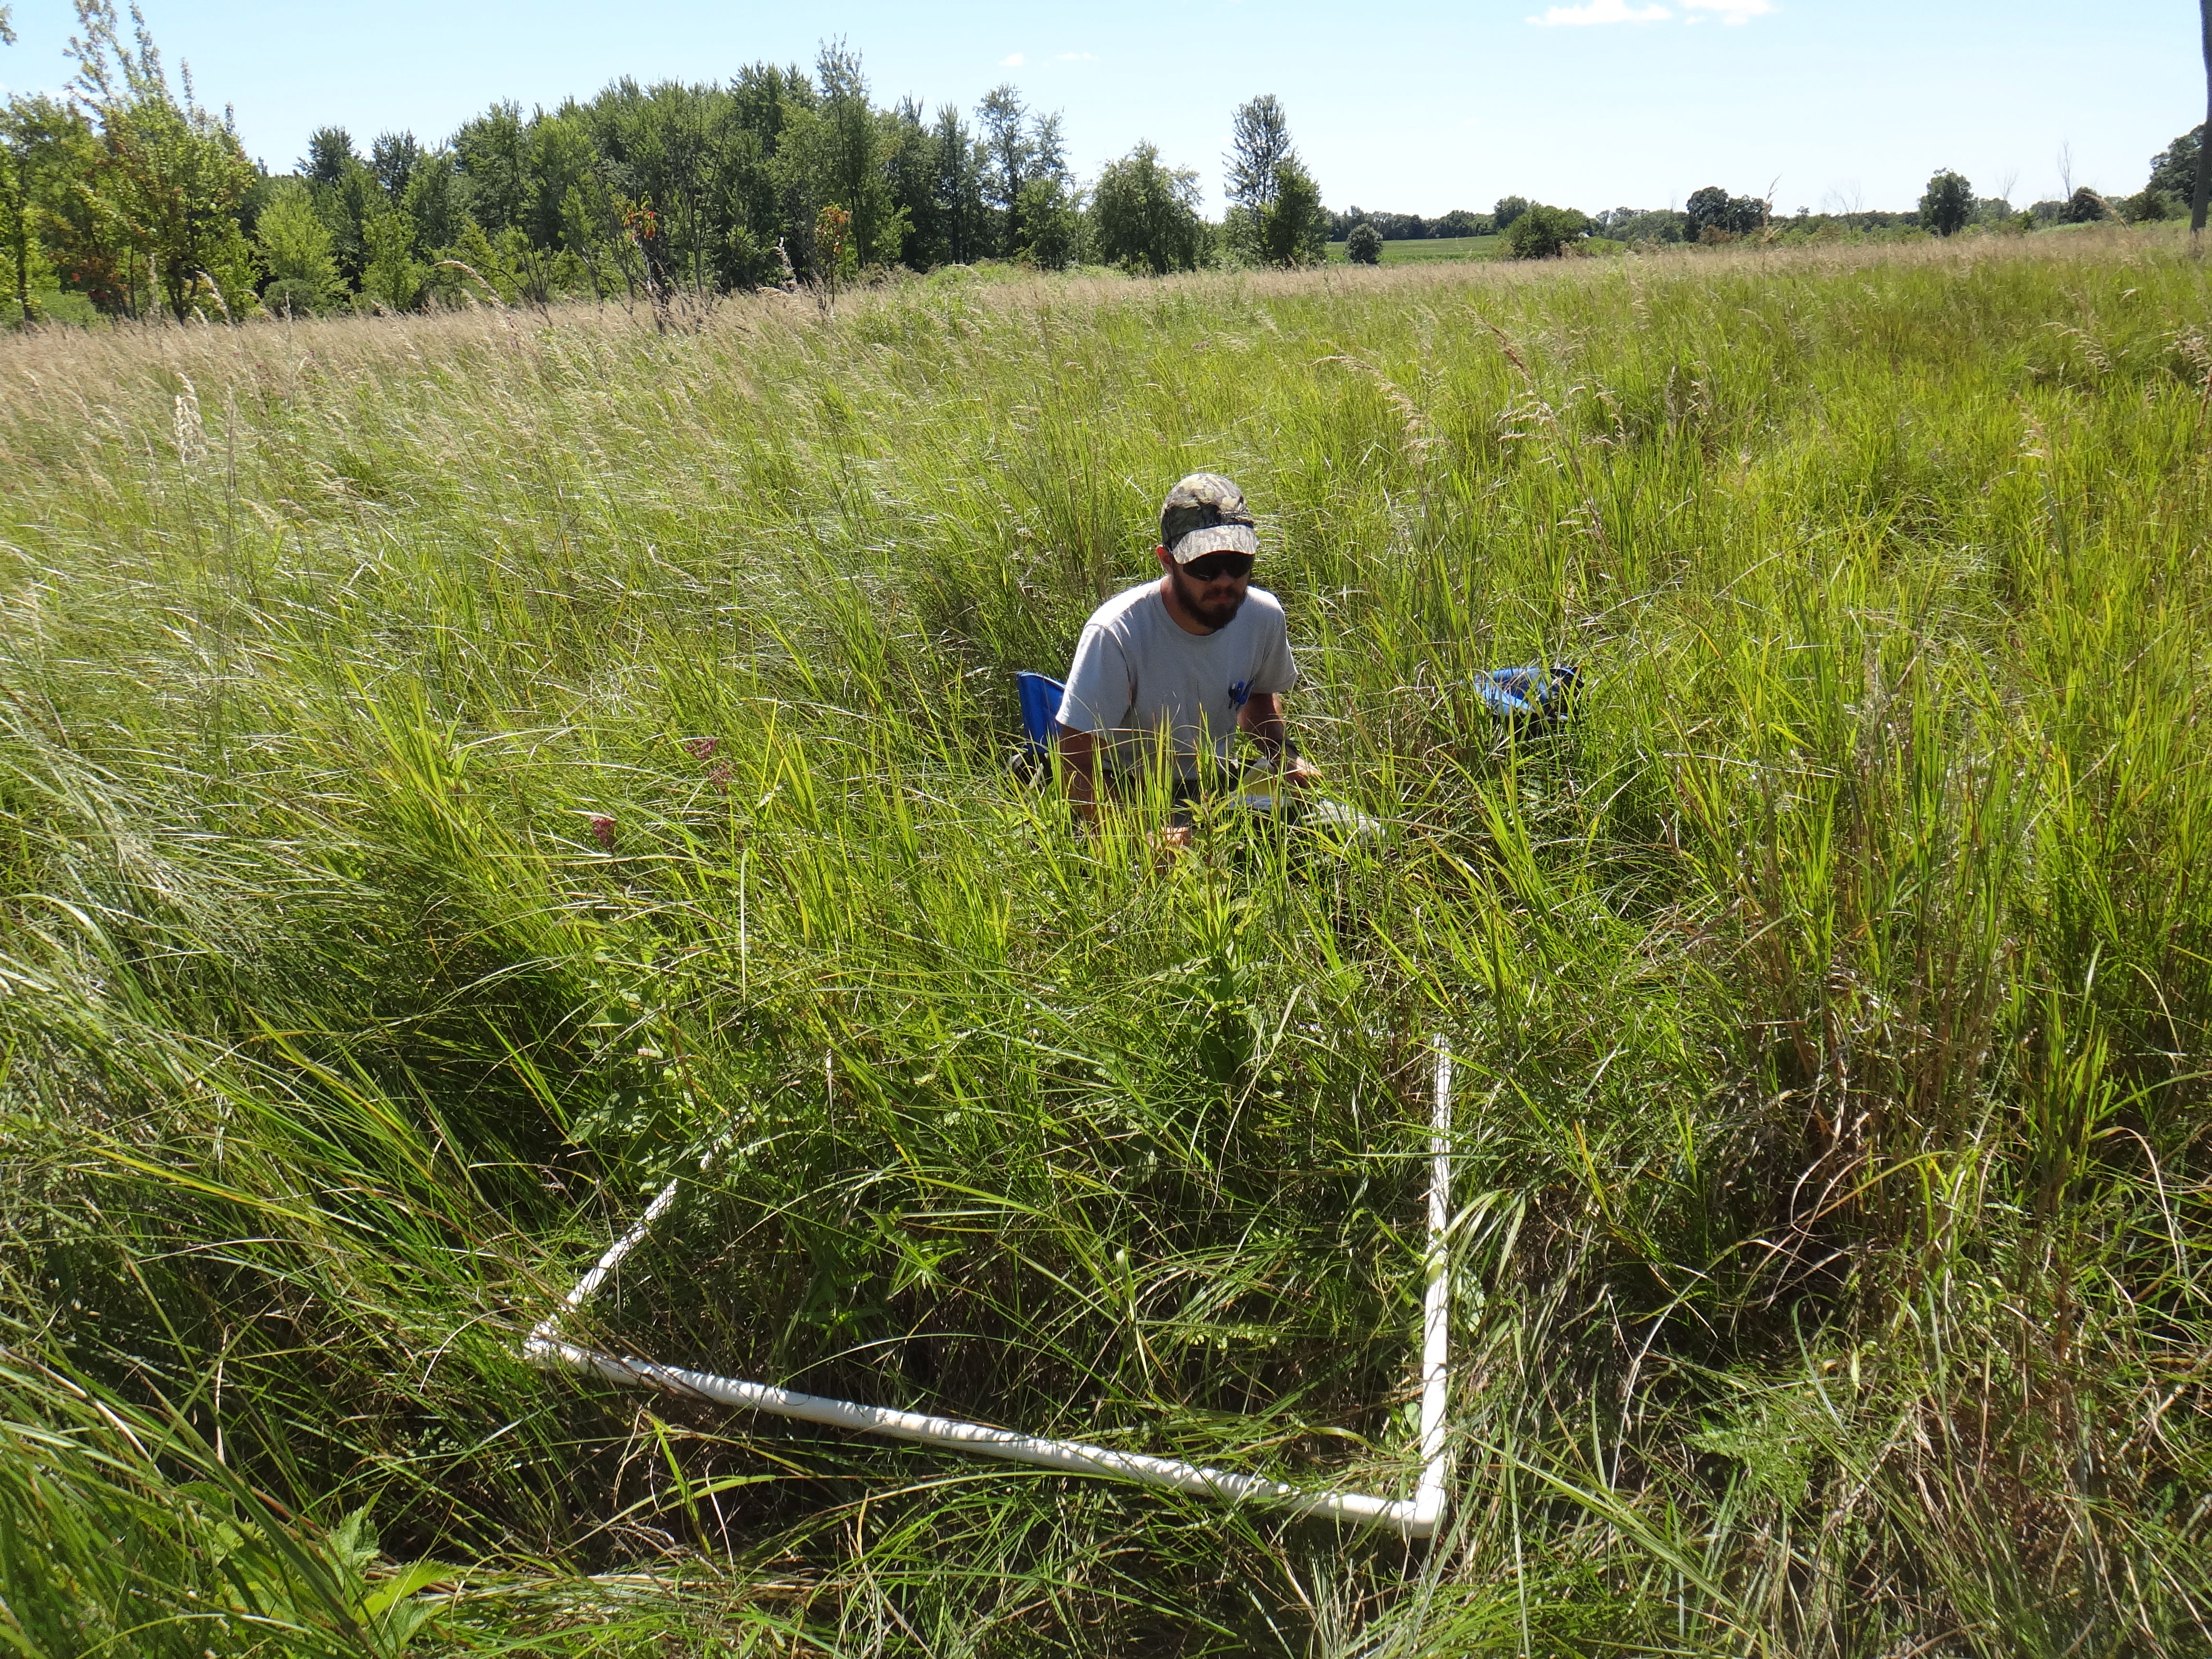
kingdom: Plantae
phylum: Tracheophyta
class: Magnoliopsida
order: Asterales
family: Asteraceae
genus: Symphyotrichum
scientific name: Symphyotrichum boreale
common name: Northern bog aster
